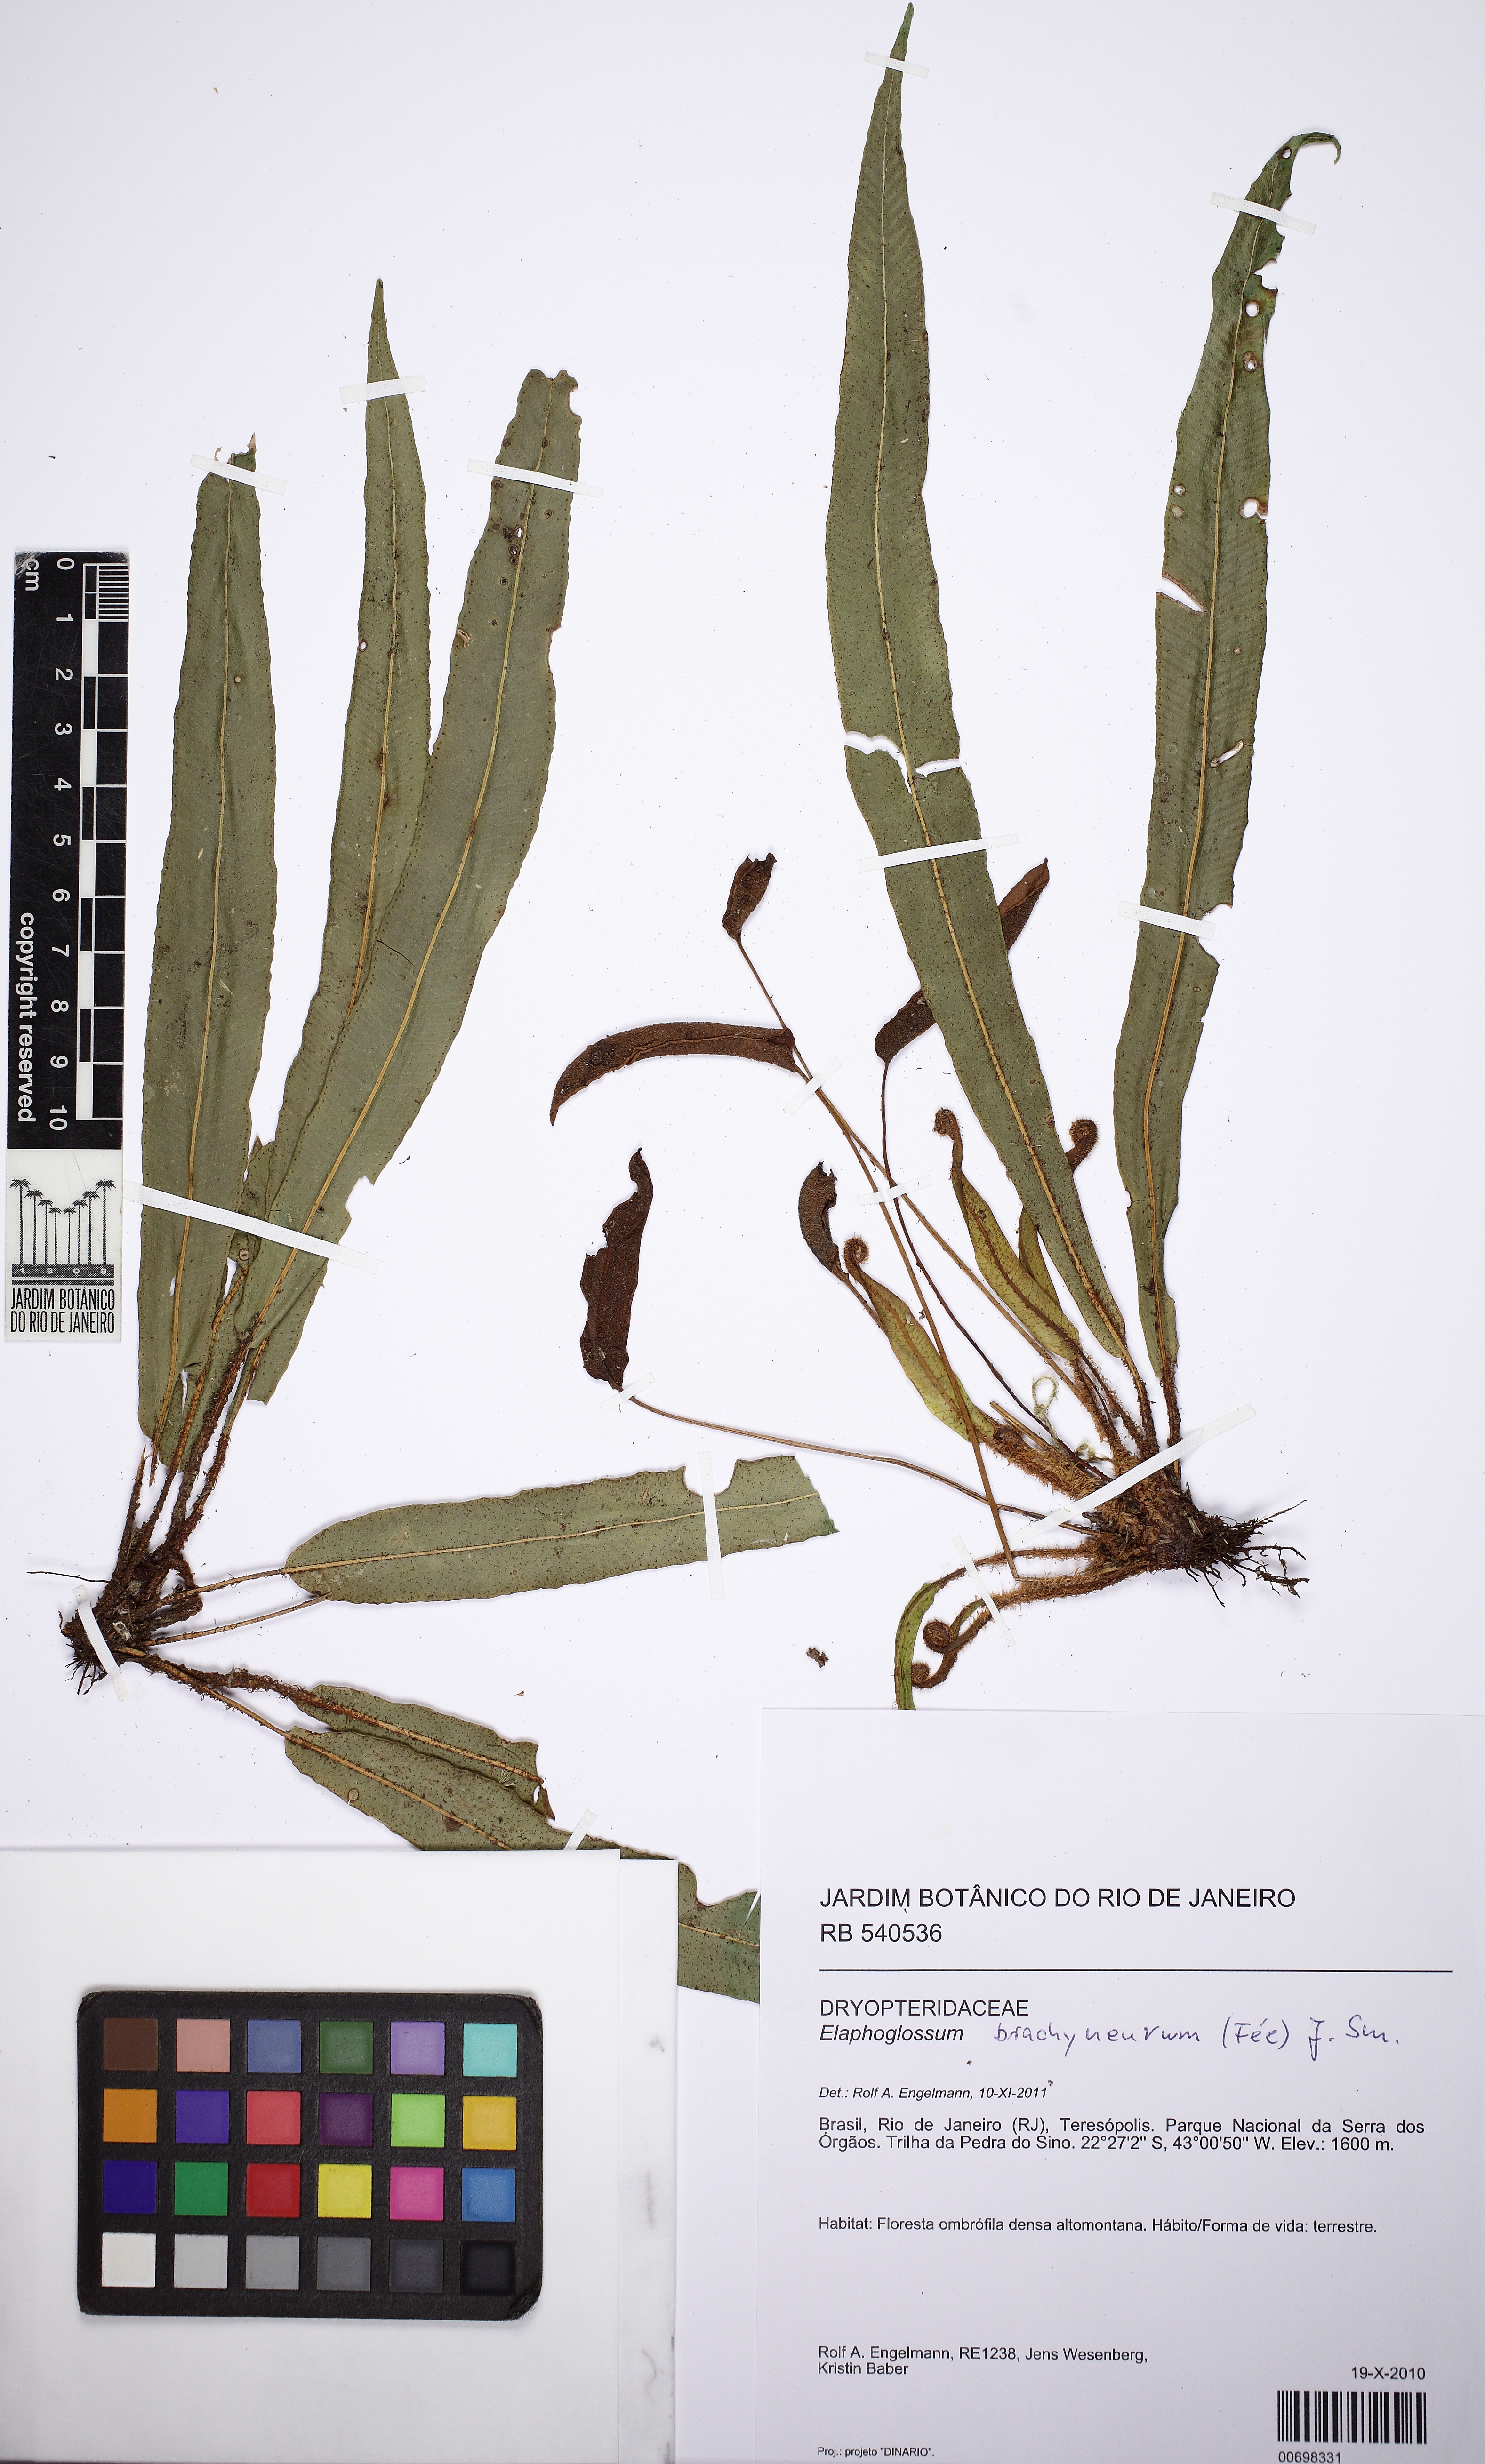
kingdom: Plantae
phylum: Tracheophyta
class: Polypodiopsida
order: Polypodiales
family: Dryopteridaceae
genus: Elaphoglossum
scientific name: Elaphoglossum beaurepairei
